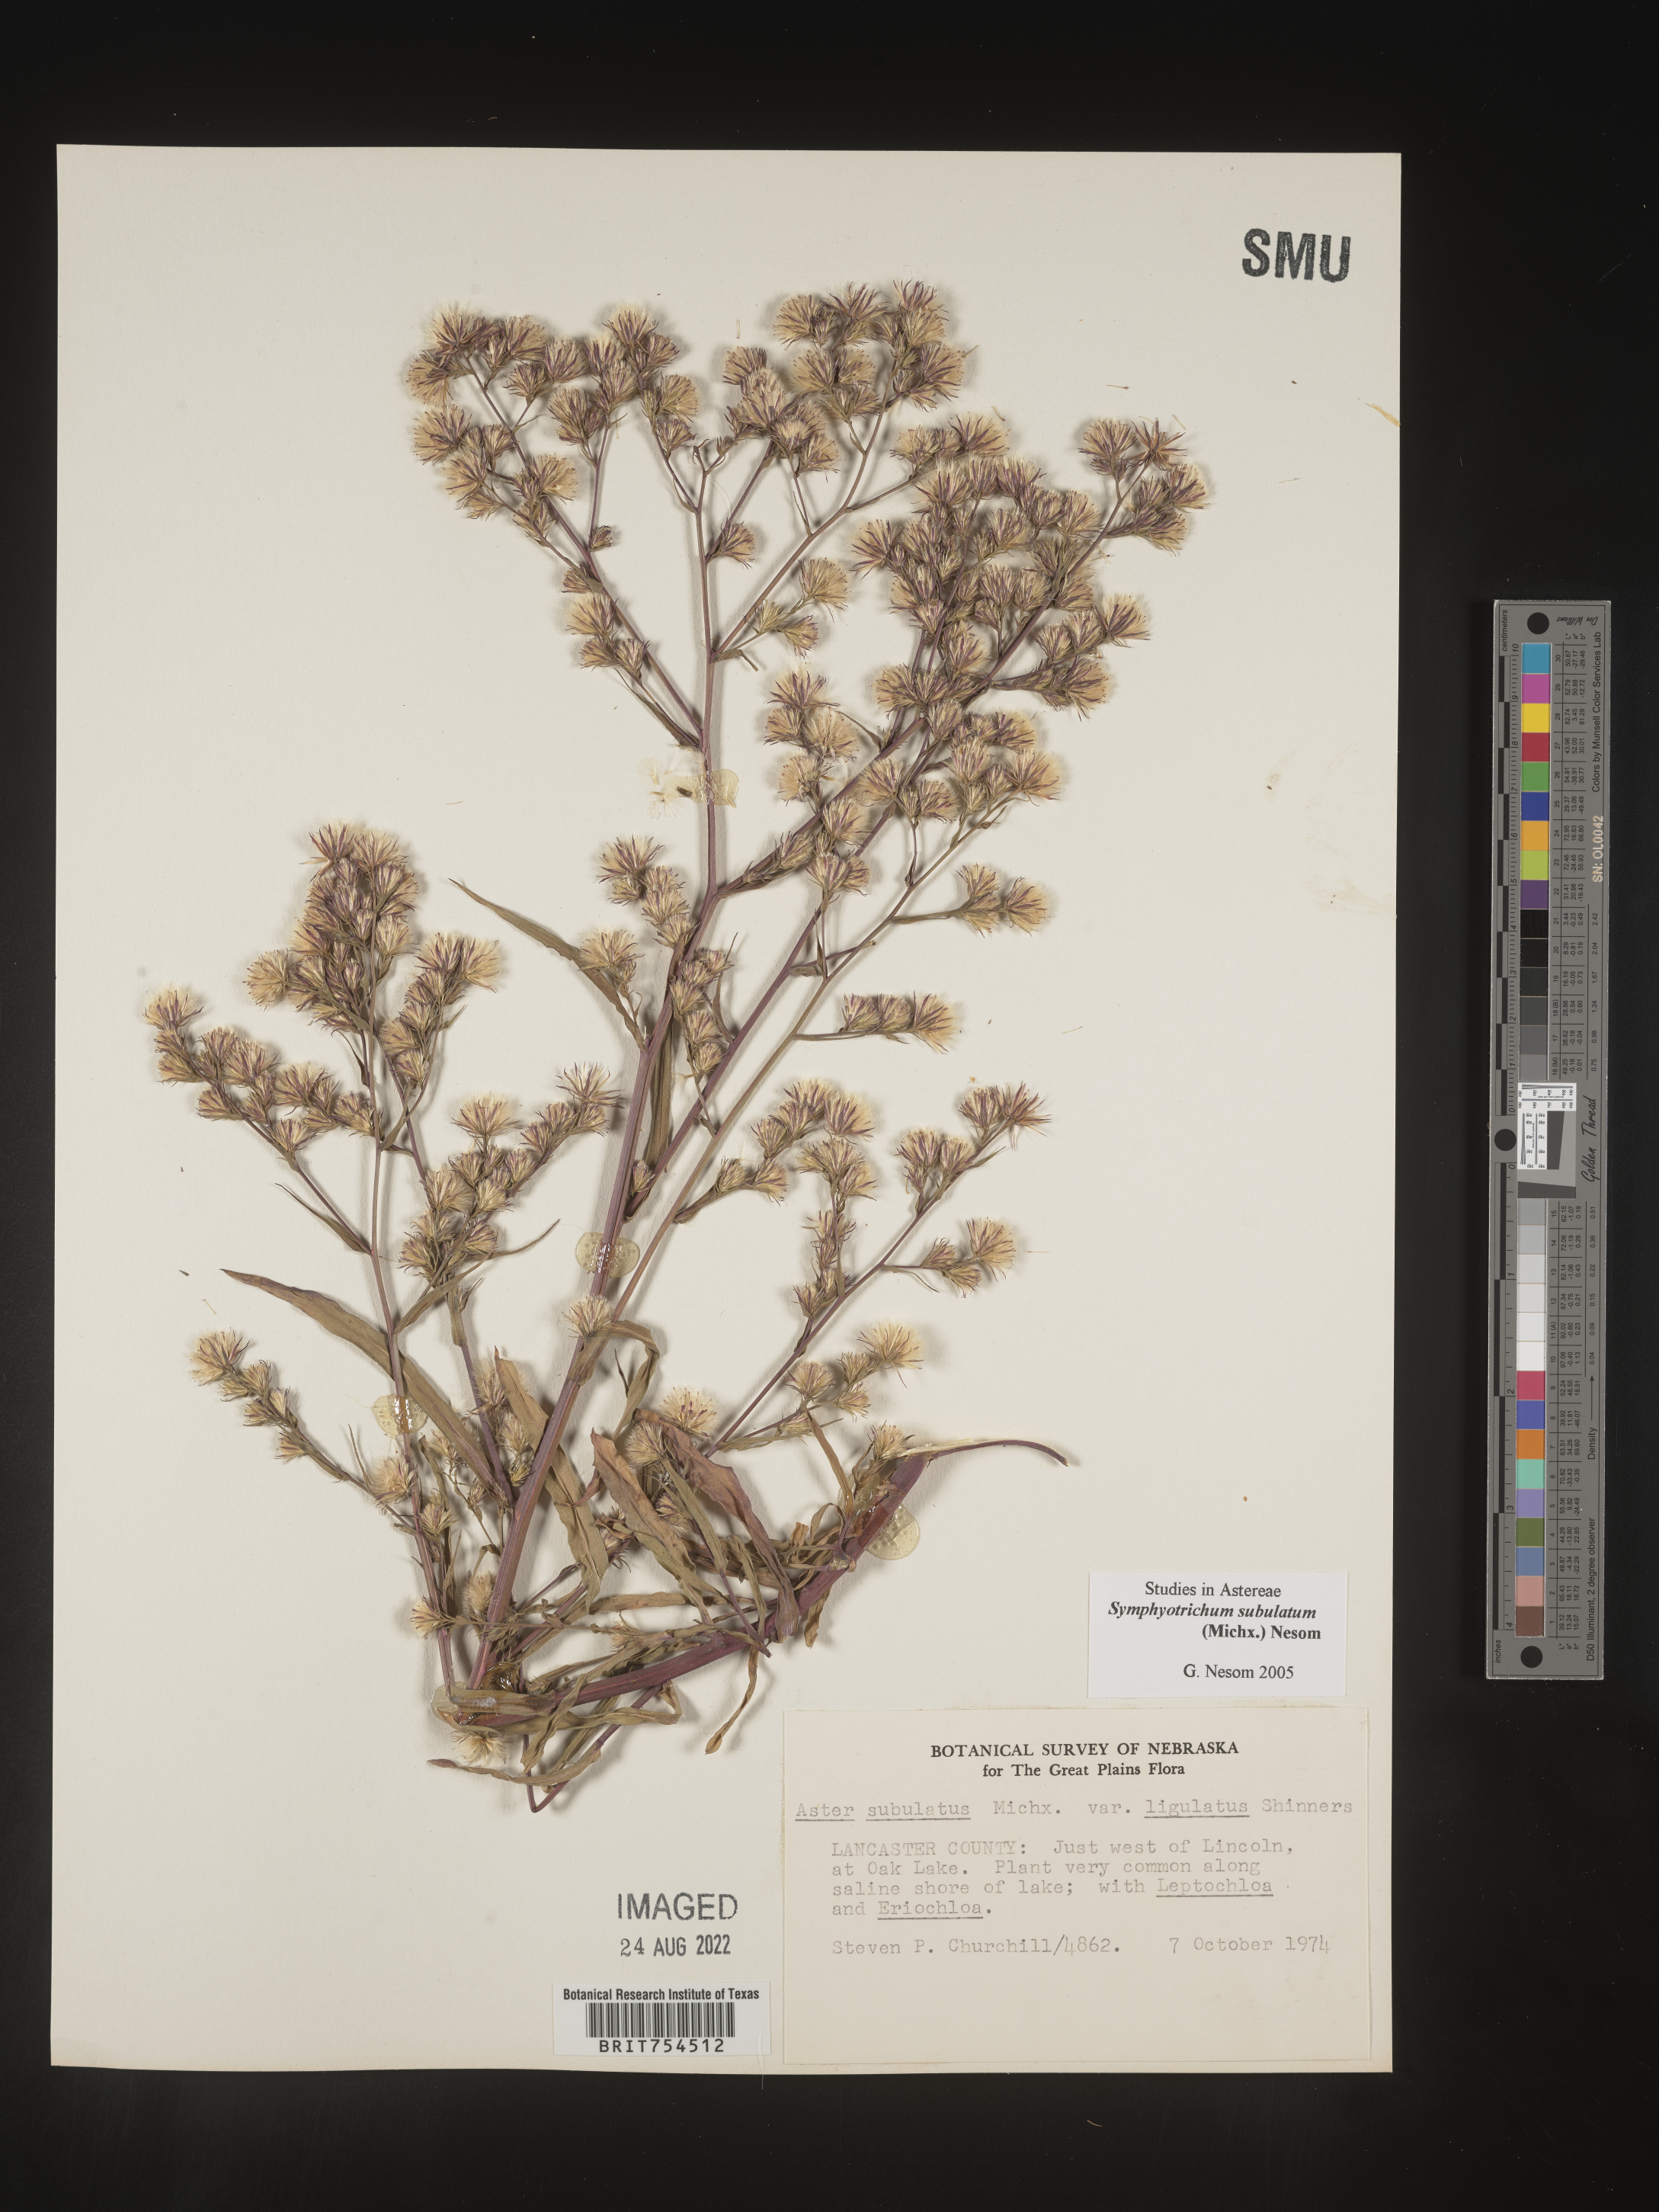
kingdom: Plantae
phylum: Tracheophyta
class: Magnoliopsida
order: Asterales
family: Asteraceae
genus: Symphyotrichum
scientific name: Symphyotrichum subulatum
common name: Annual saltmarsh aster
